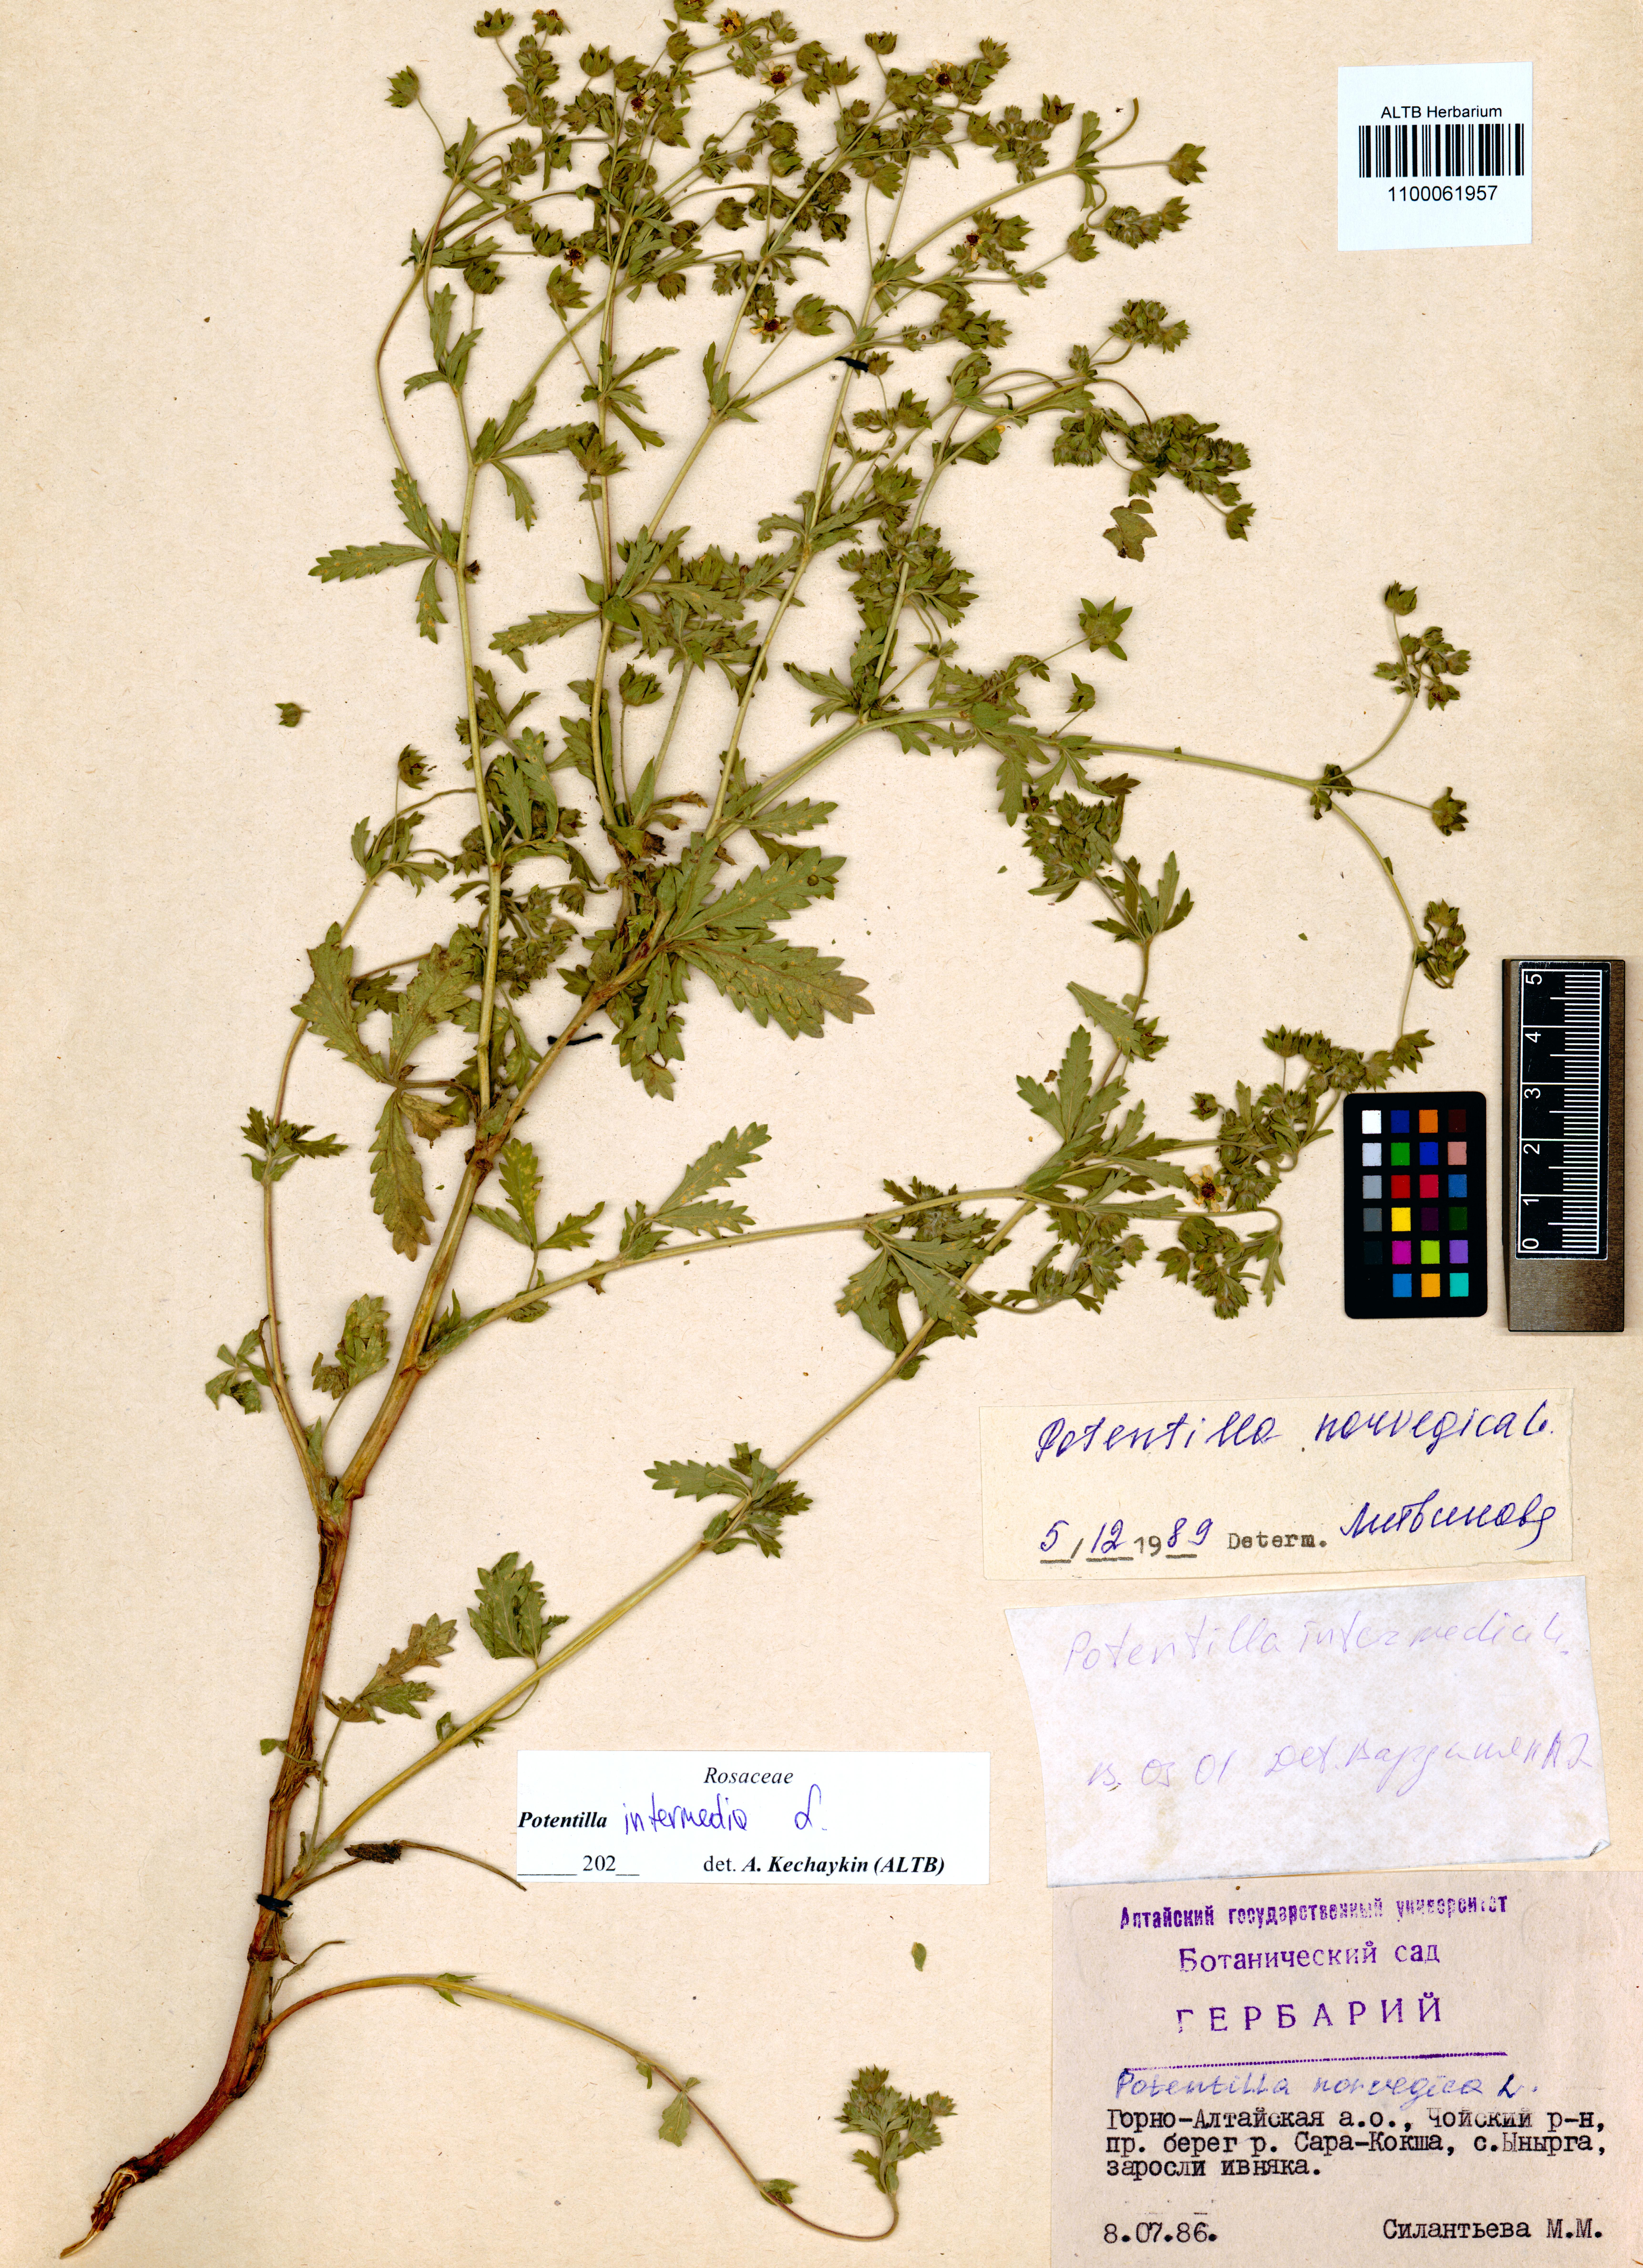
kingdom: Plantae
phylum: Tracheophyta
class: Magnoliopsida
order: Rosales
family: Rosaceae
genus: Potentilla
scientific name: Potentilla intermedia
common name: Downy cinquefoil
